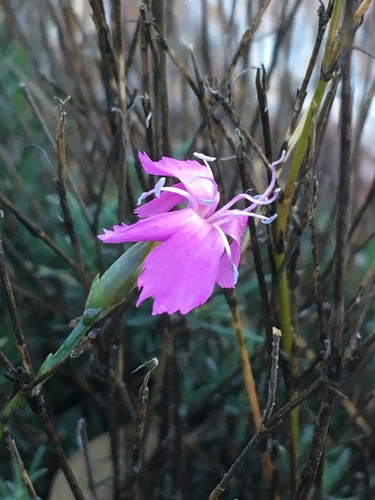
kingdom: Plantae
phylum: Tracheophyta
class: Magnoliopsida
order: Caryophyllales
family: Caryophyllaceae
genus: Dianthus
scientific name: Dianthus lusitanus
